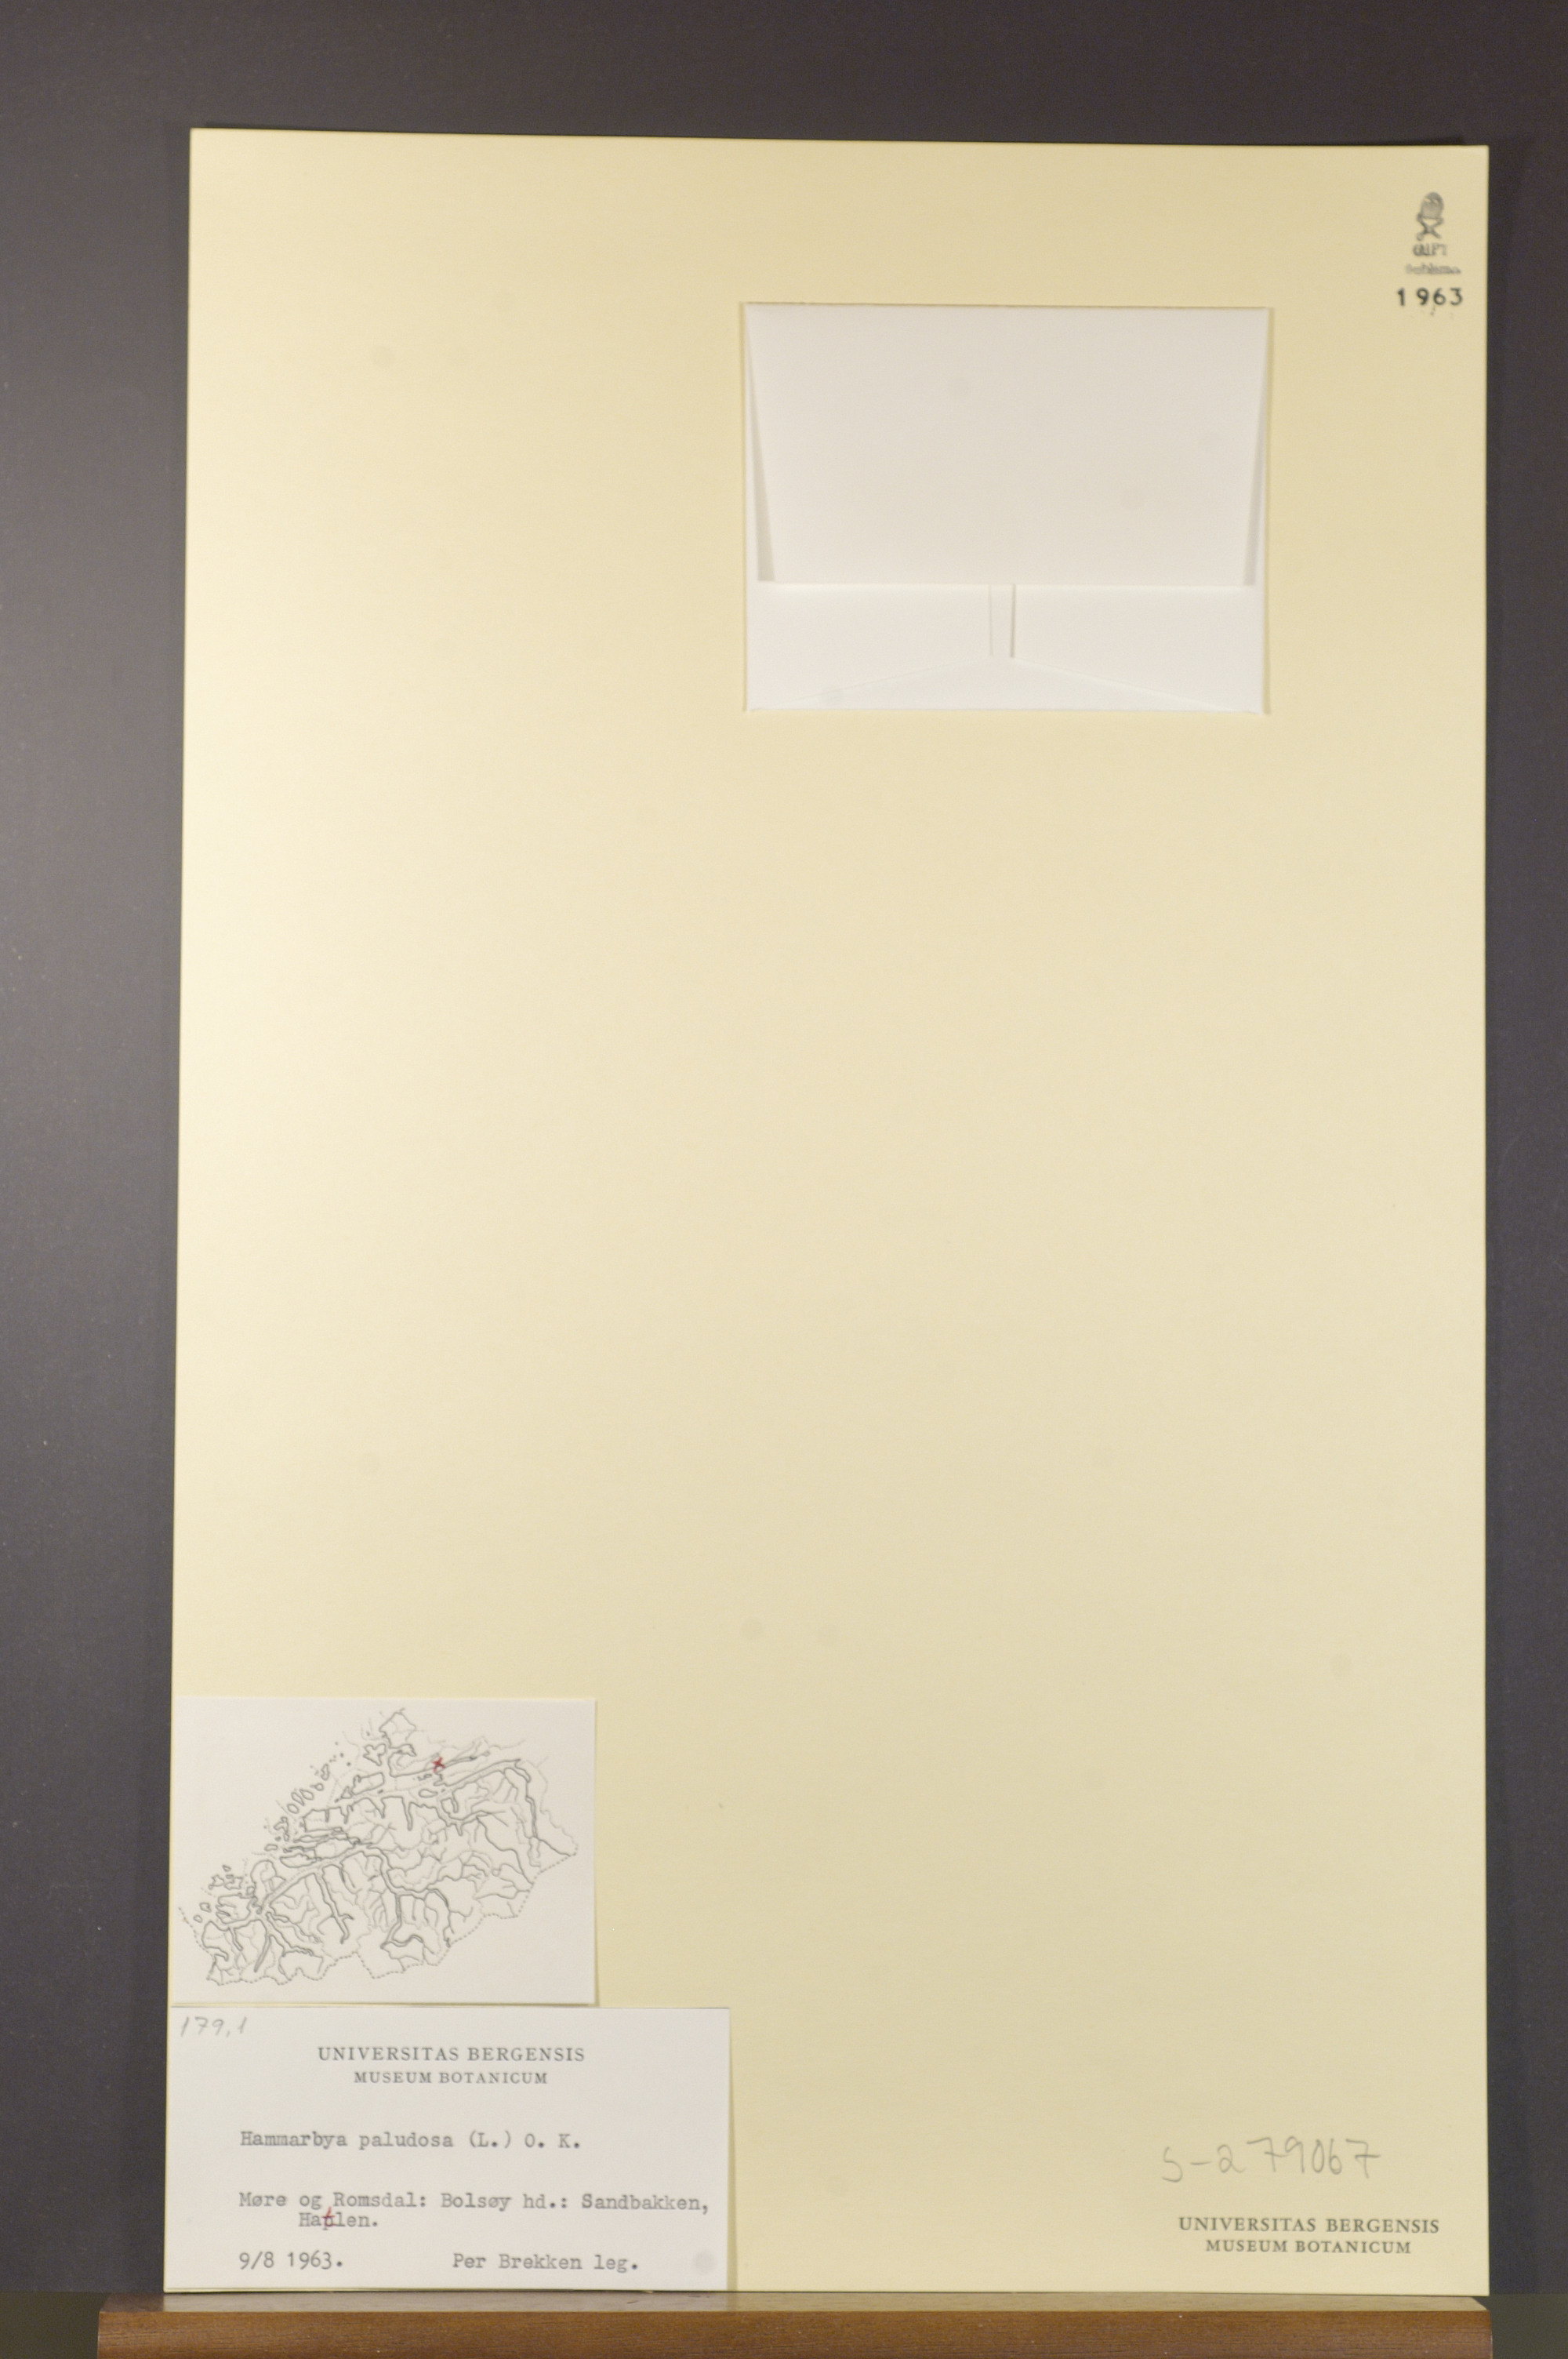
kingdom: Plantae
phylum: Tracheophyta
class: Liliopsida
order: Asparagales
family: Orchidaceae
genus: Hammarbya
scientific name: Hammarbya paludosa
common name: Bog orchid
